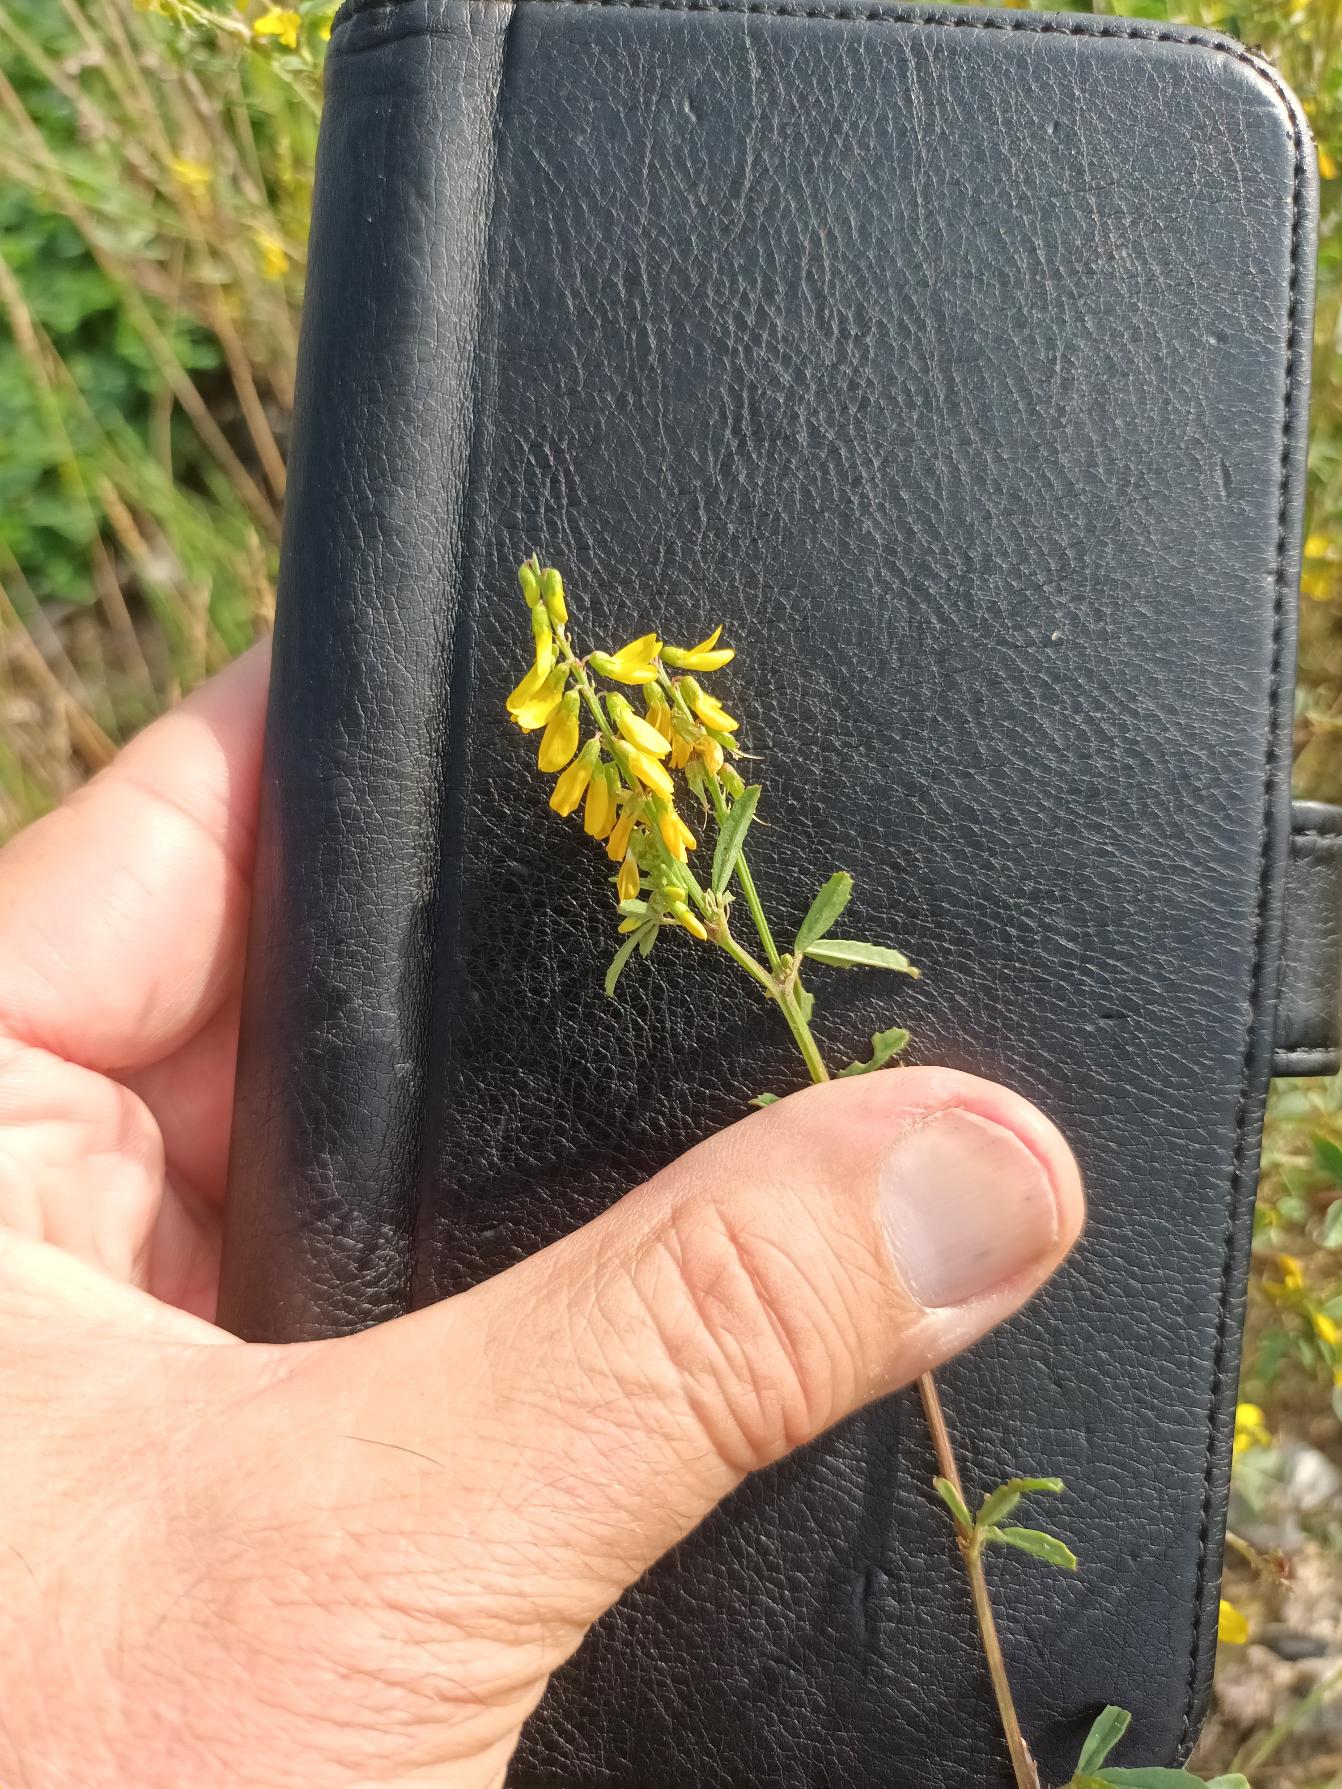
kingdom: Plantae
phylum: Tracheophyta
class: Magnoliopsida
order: Fabales
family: Fabaceae
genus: Melilotus
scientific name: Melilotus altissimus
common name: Høj stenkløver
